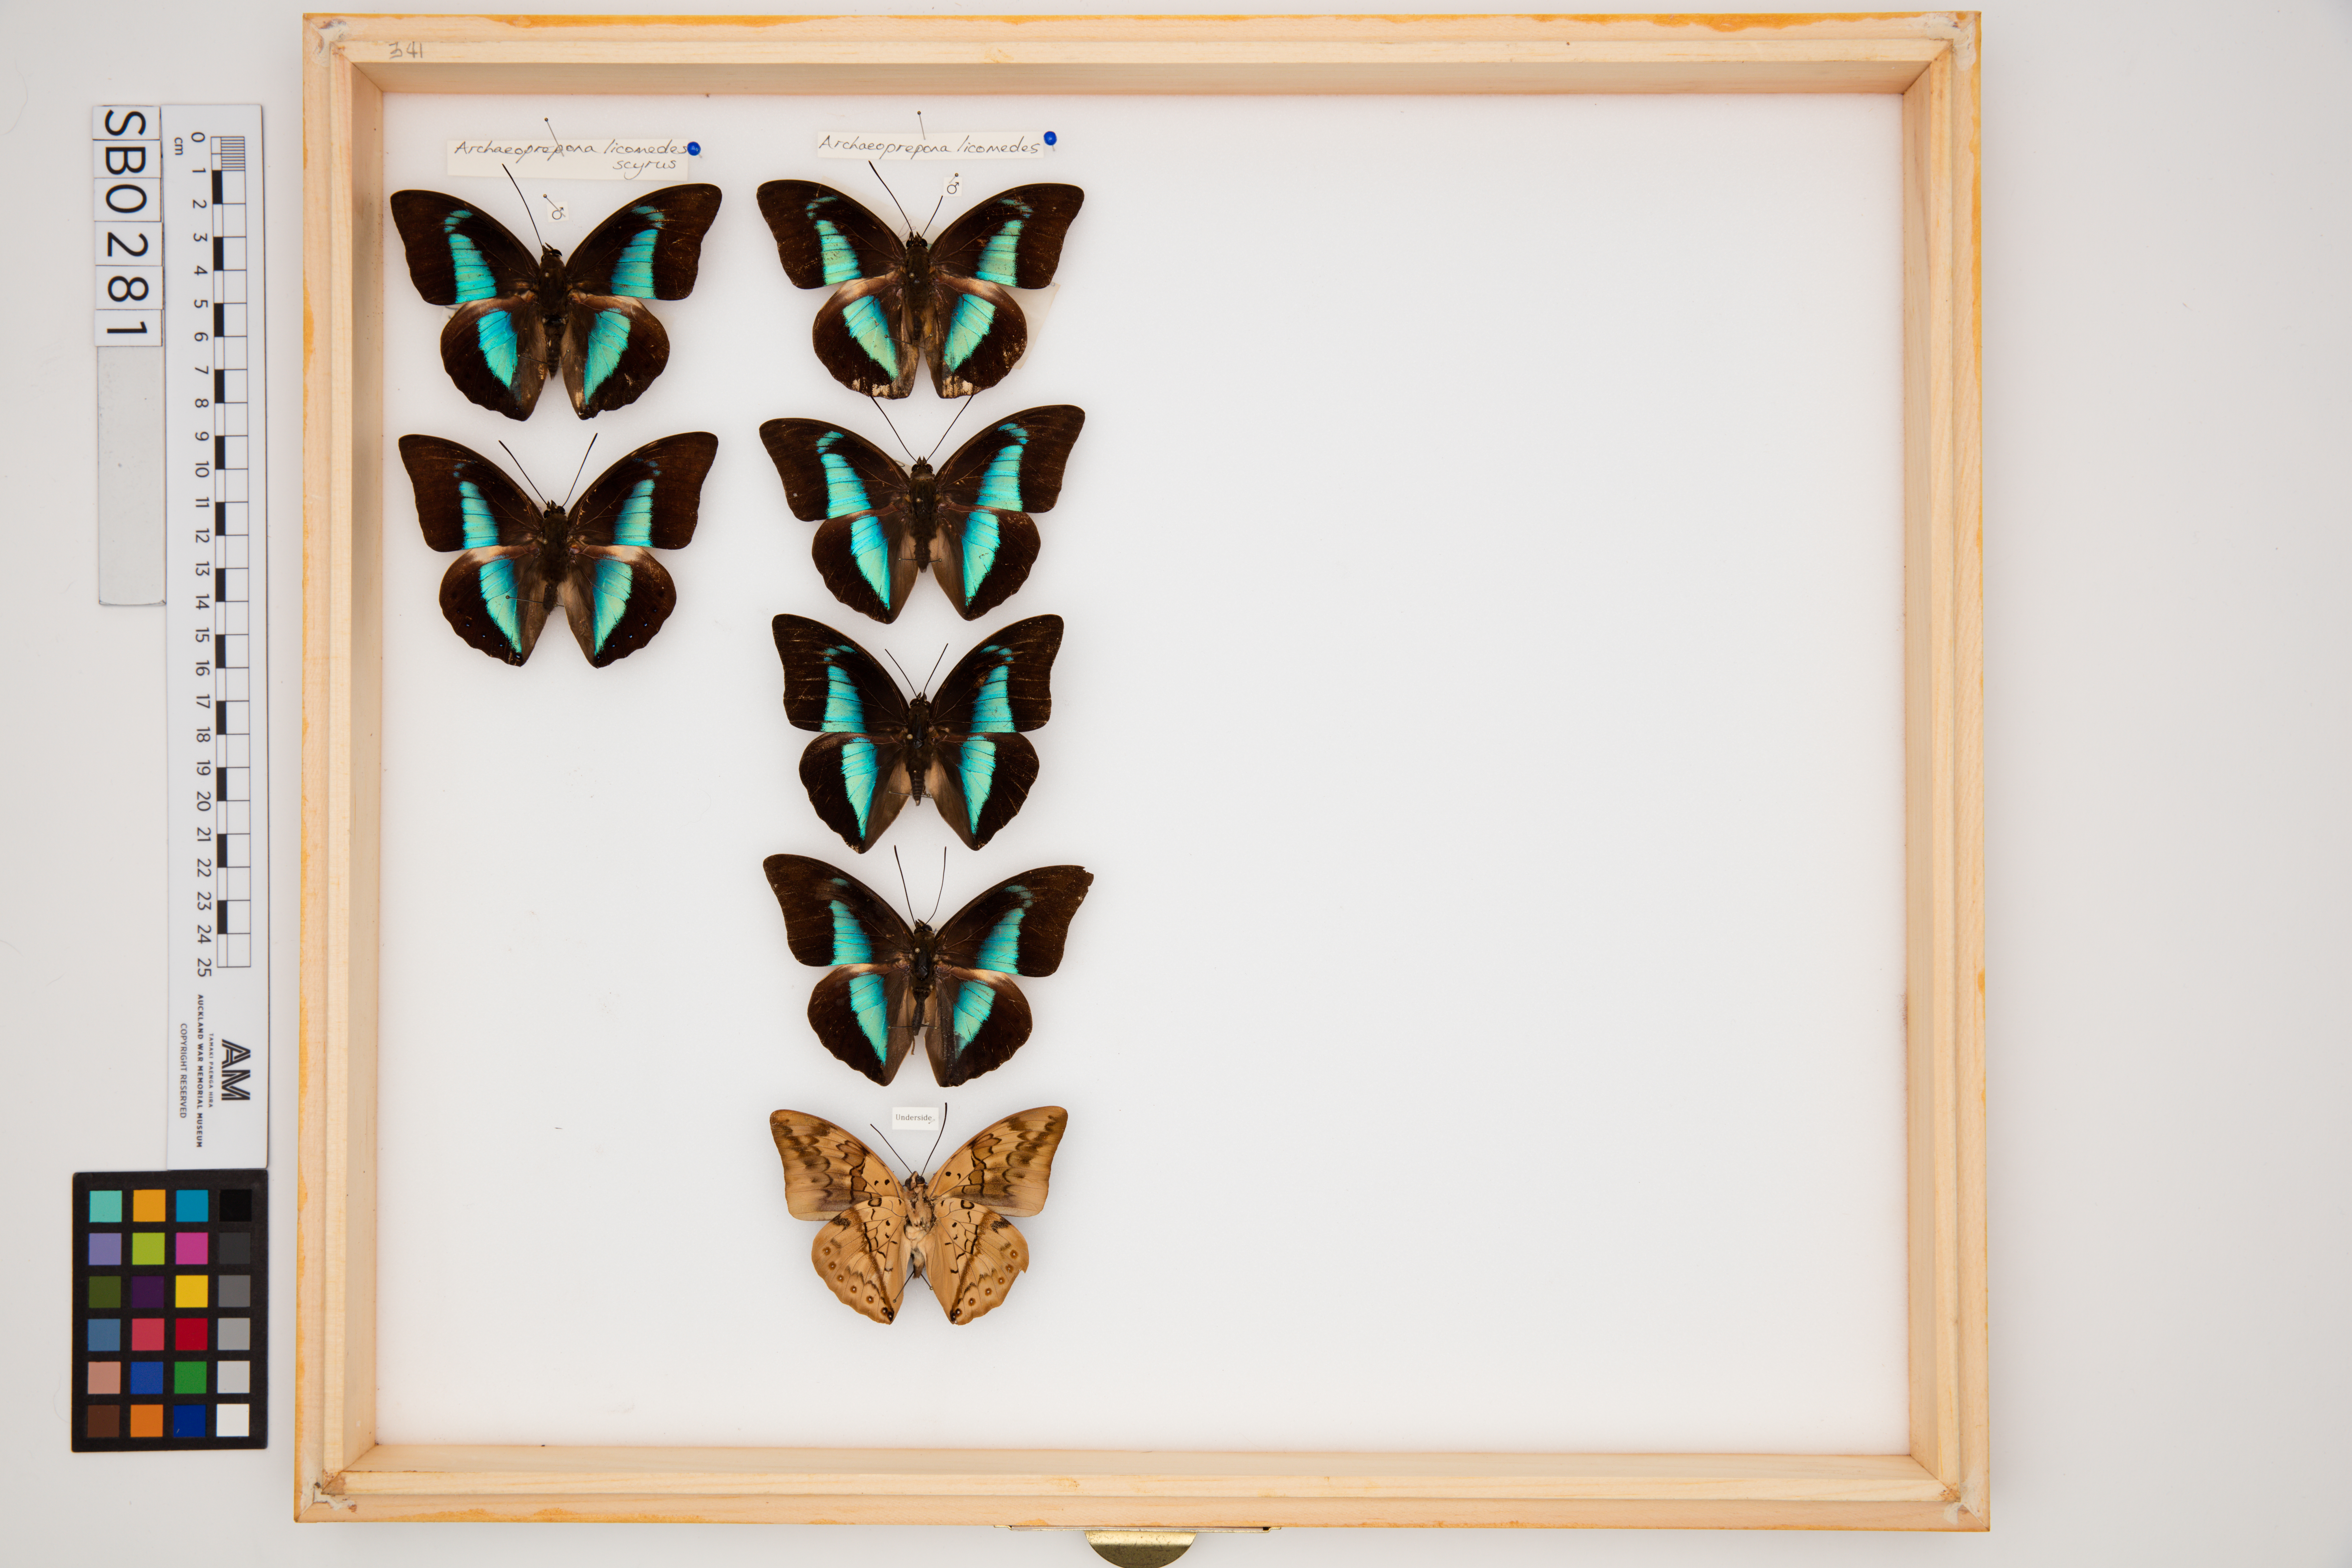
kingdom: Animalia
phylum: Arthropoda
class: Insecta
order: Lepidoptera
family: Nymphalidae
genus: Prepona
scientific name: Prepona licomedes
